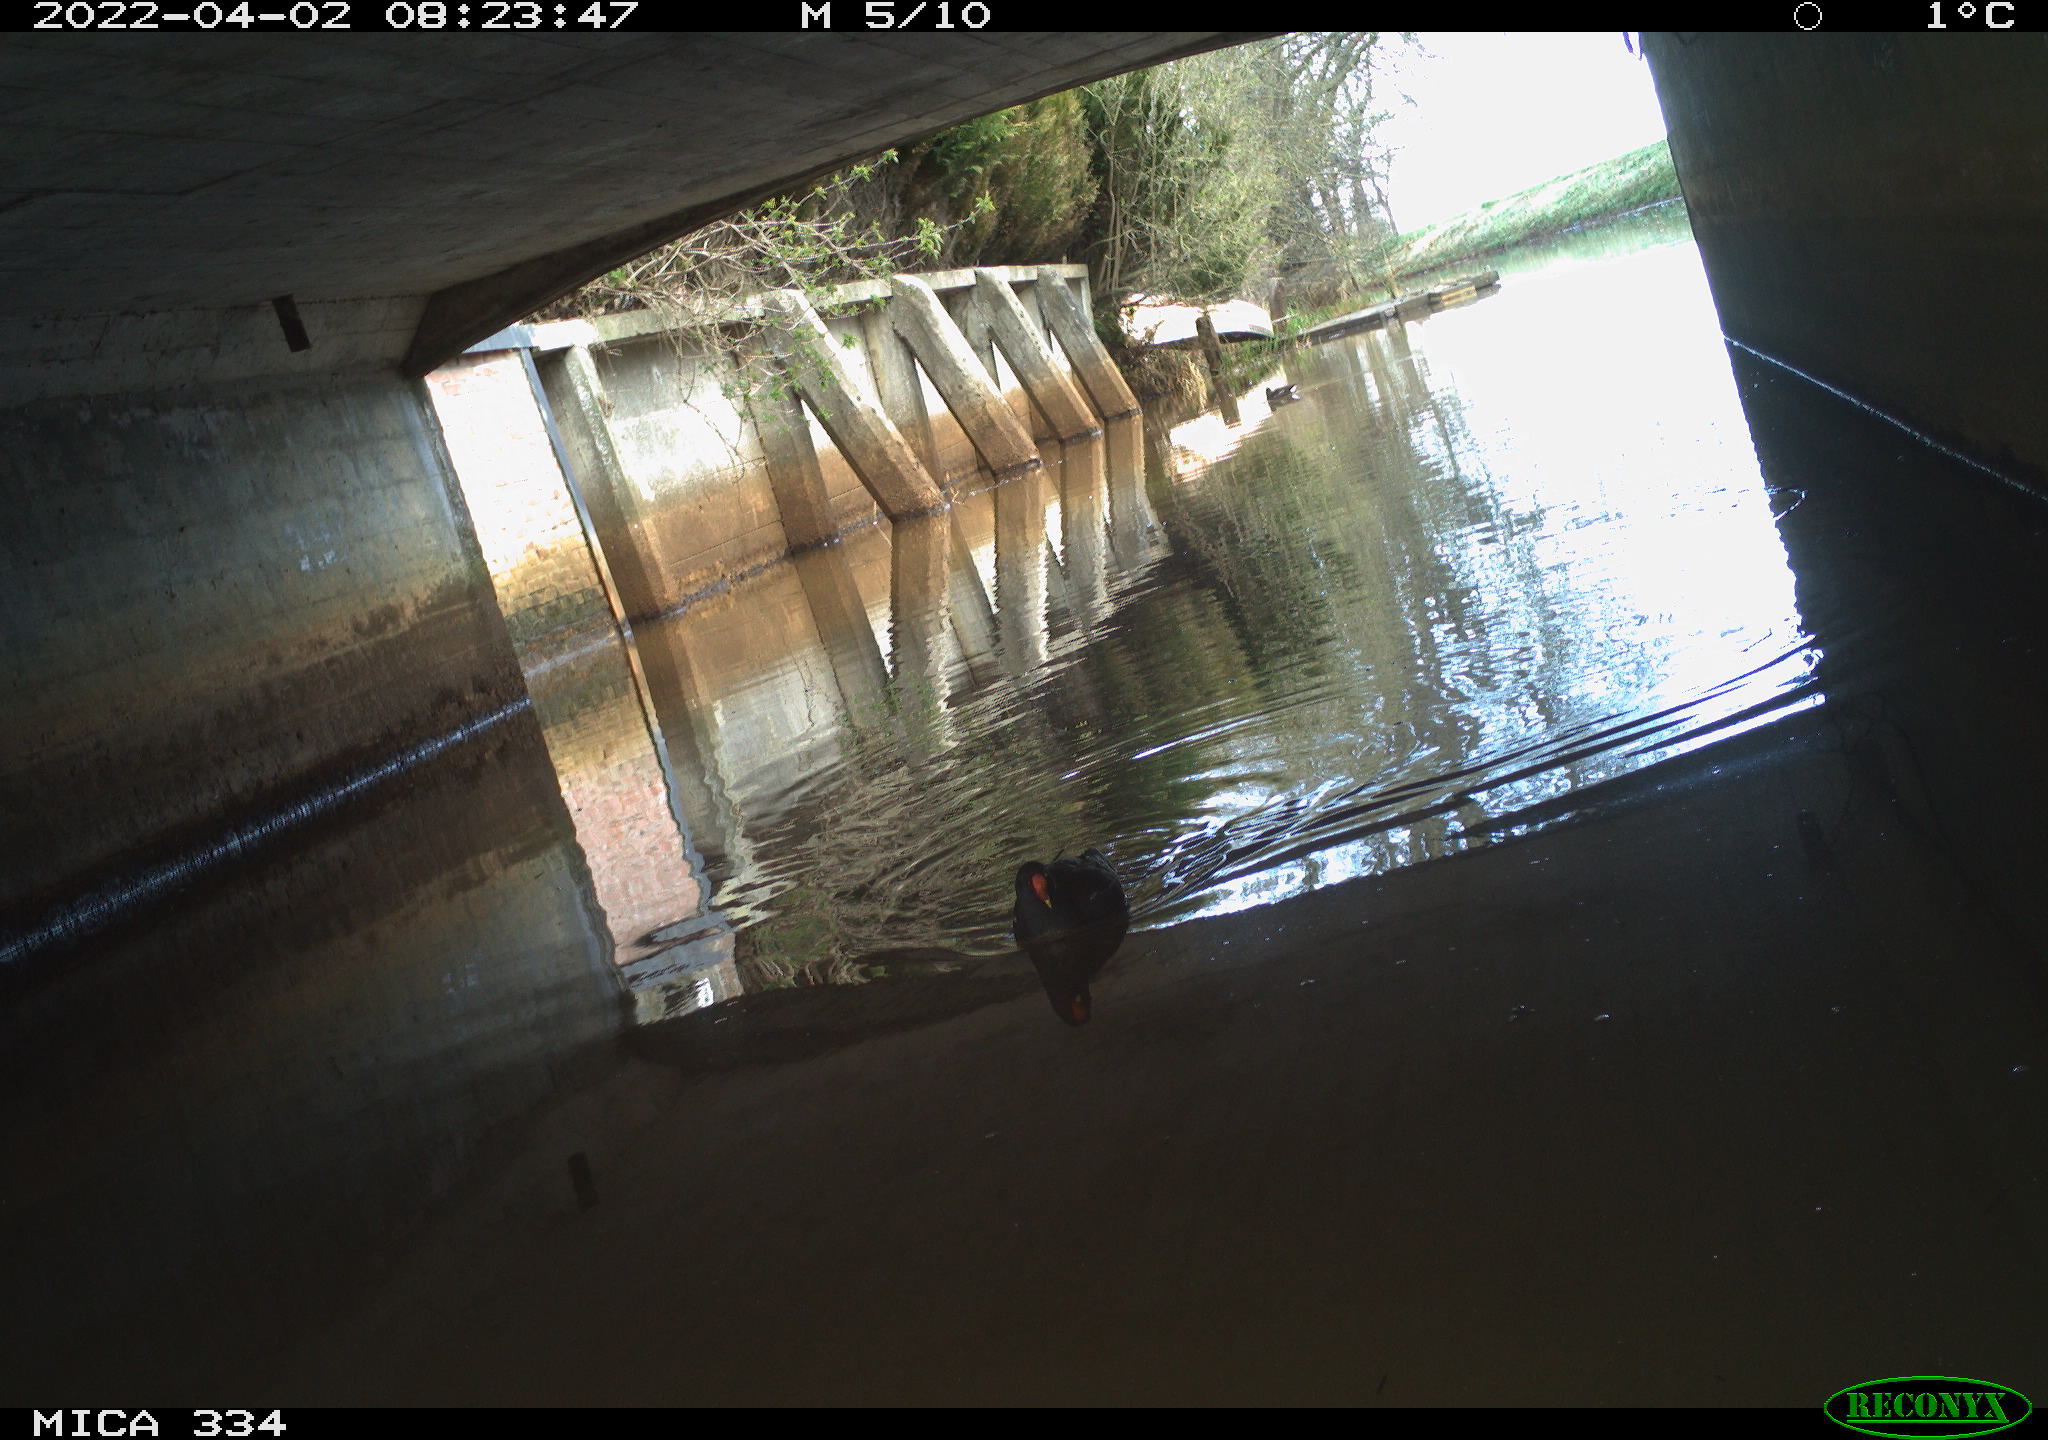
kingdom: Animalia
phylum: Chordata
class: Aves
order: Gruiformes
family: Rallidae
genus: Gallinula
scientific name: Gallinula chloropus
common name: Common moorhen
